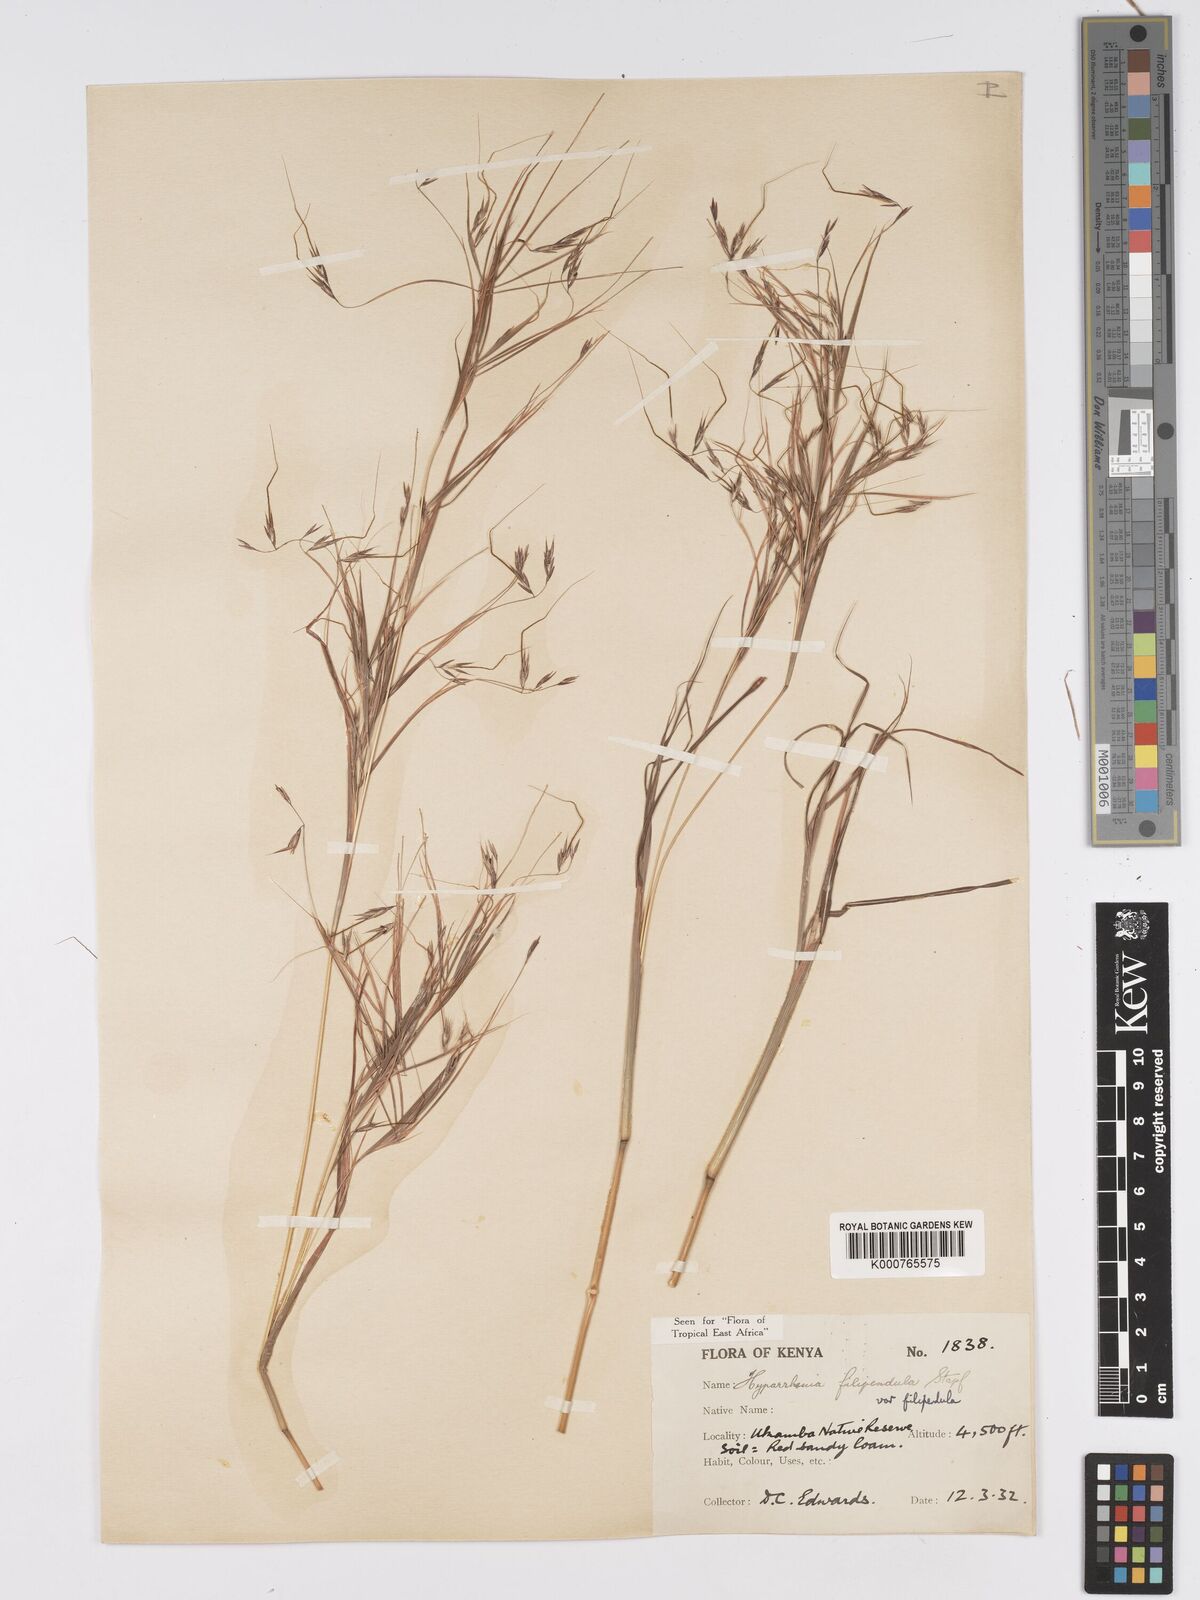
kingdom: Plantae
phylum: Tracheophyta
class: Liliopsida
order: Poales
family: Poaceae
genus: Hyparrhenia
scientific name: Hyparrhenia filipendula
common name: Tambookie grass
